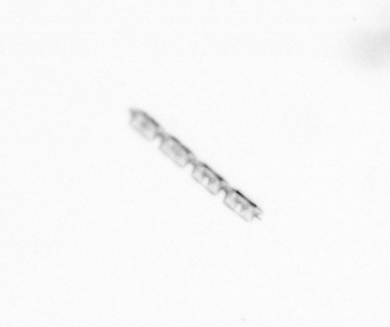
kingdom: Chromista
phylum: Ochrophyta
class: Bacillariophyceae
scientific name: Bacillariophyceae
